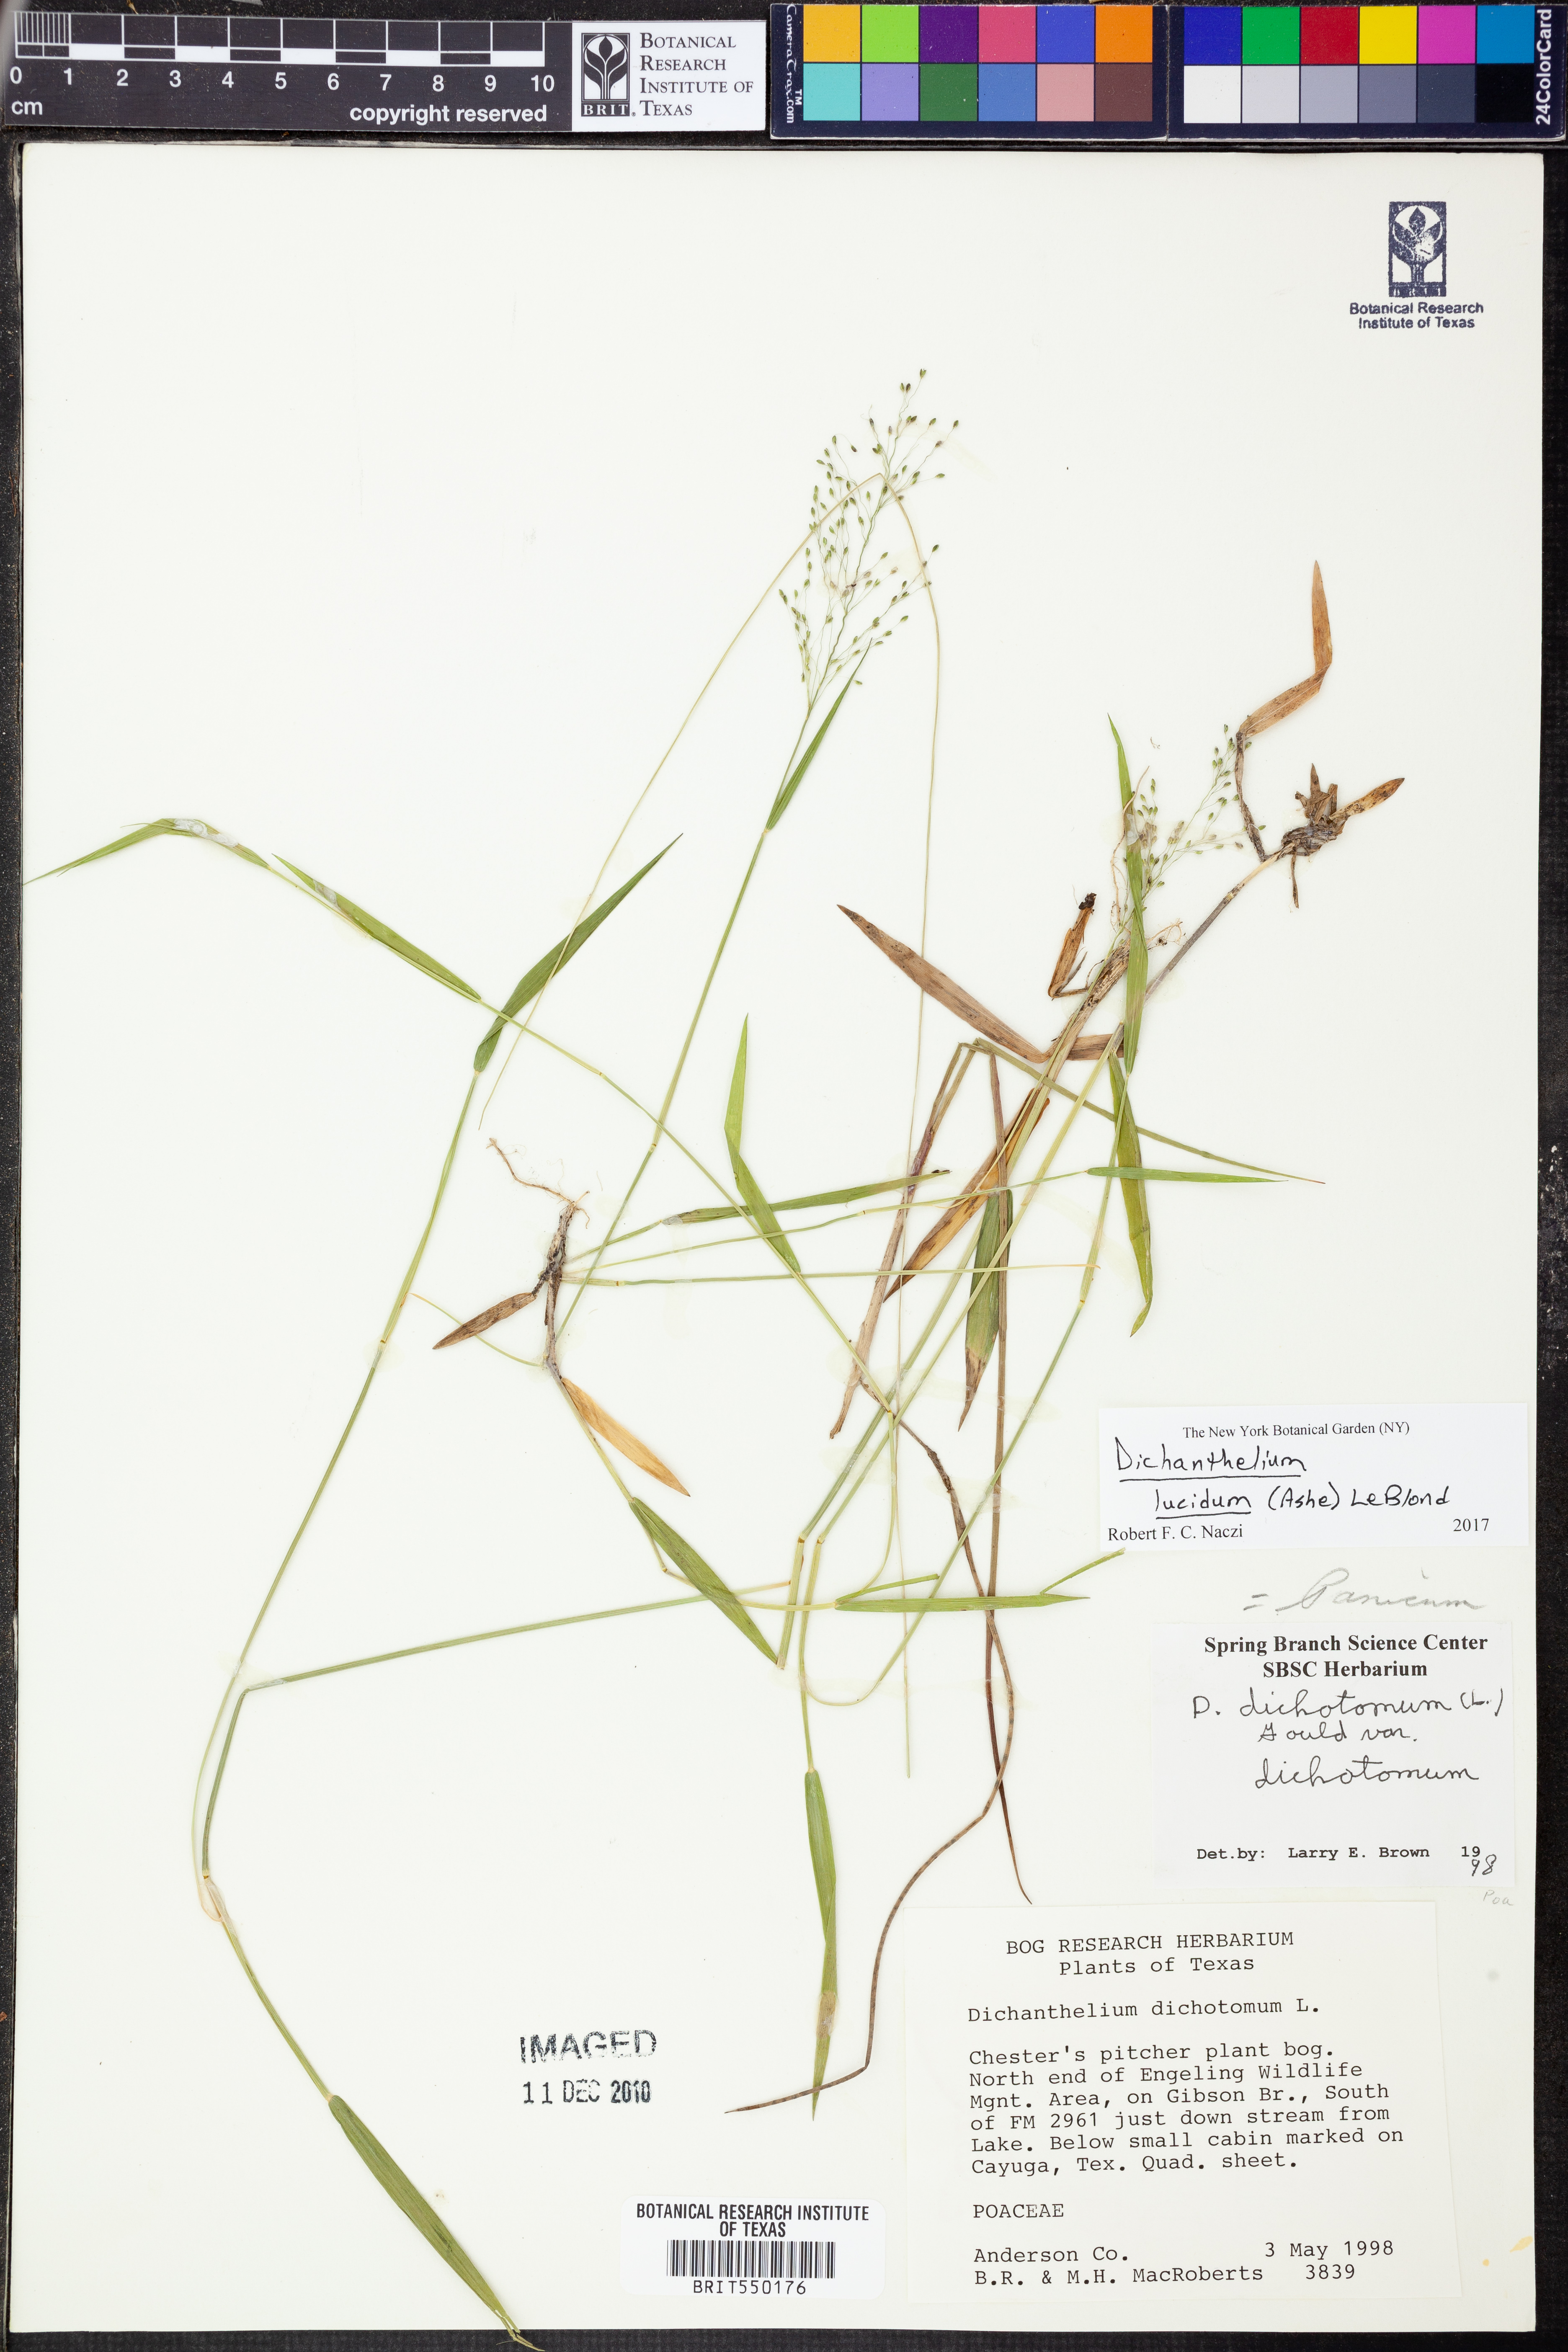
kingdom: Plantae
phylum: Tracheophyta
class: Liliopsida
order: Poales
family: Poaceae
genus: Dichanthelium
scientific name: Dichanthelium lucidum
